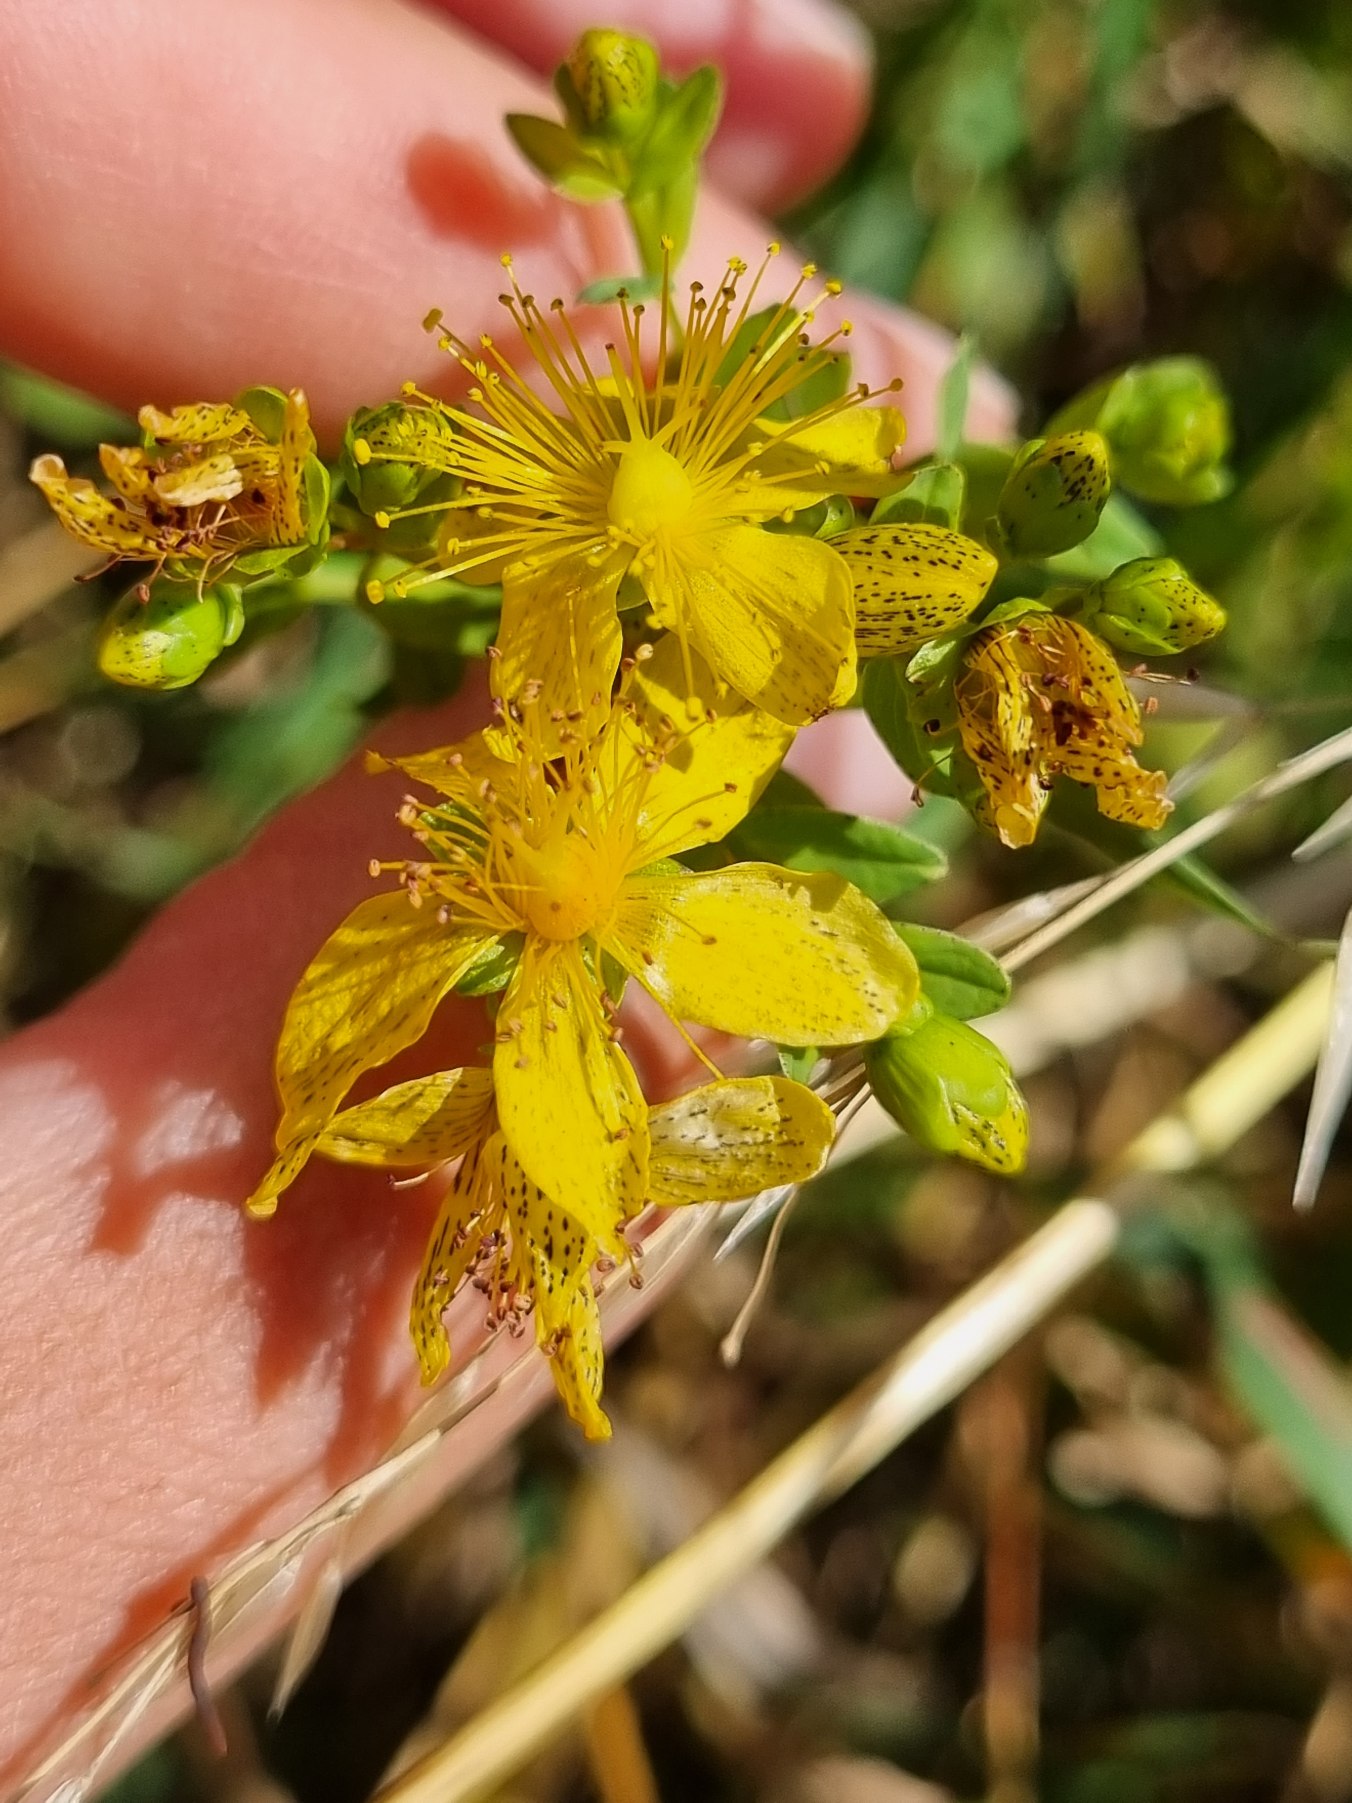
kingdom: Plantae
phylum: Tracheophyta
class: Magnoliopsida
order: Malpighiales
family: Hypericaceae
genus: Hypericum
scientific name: Hypericum maculatum
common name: Kantet perikon
